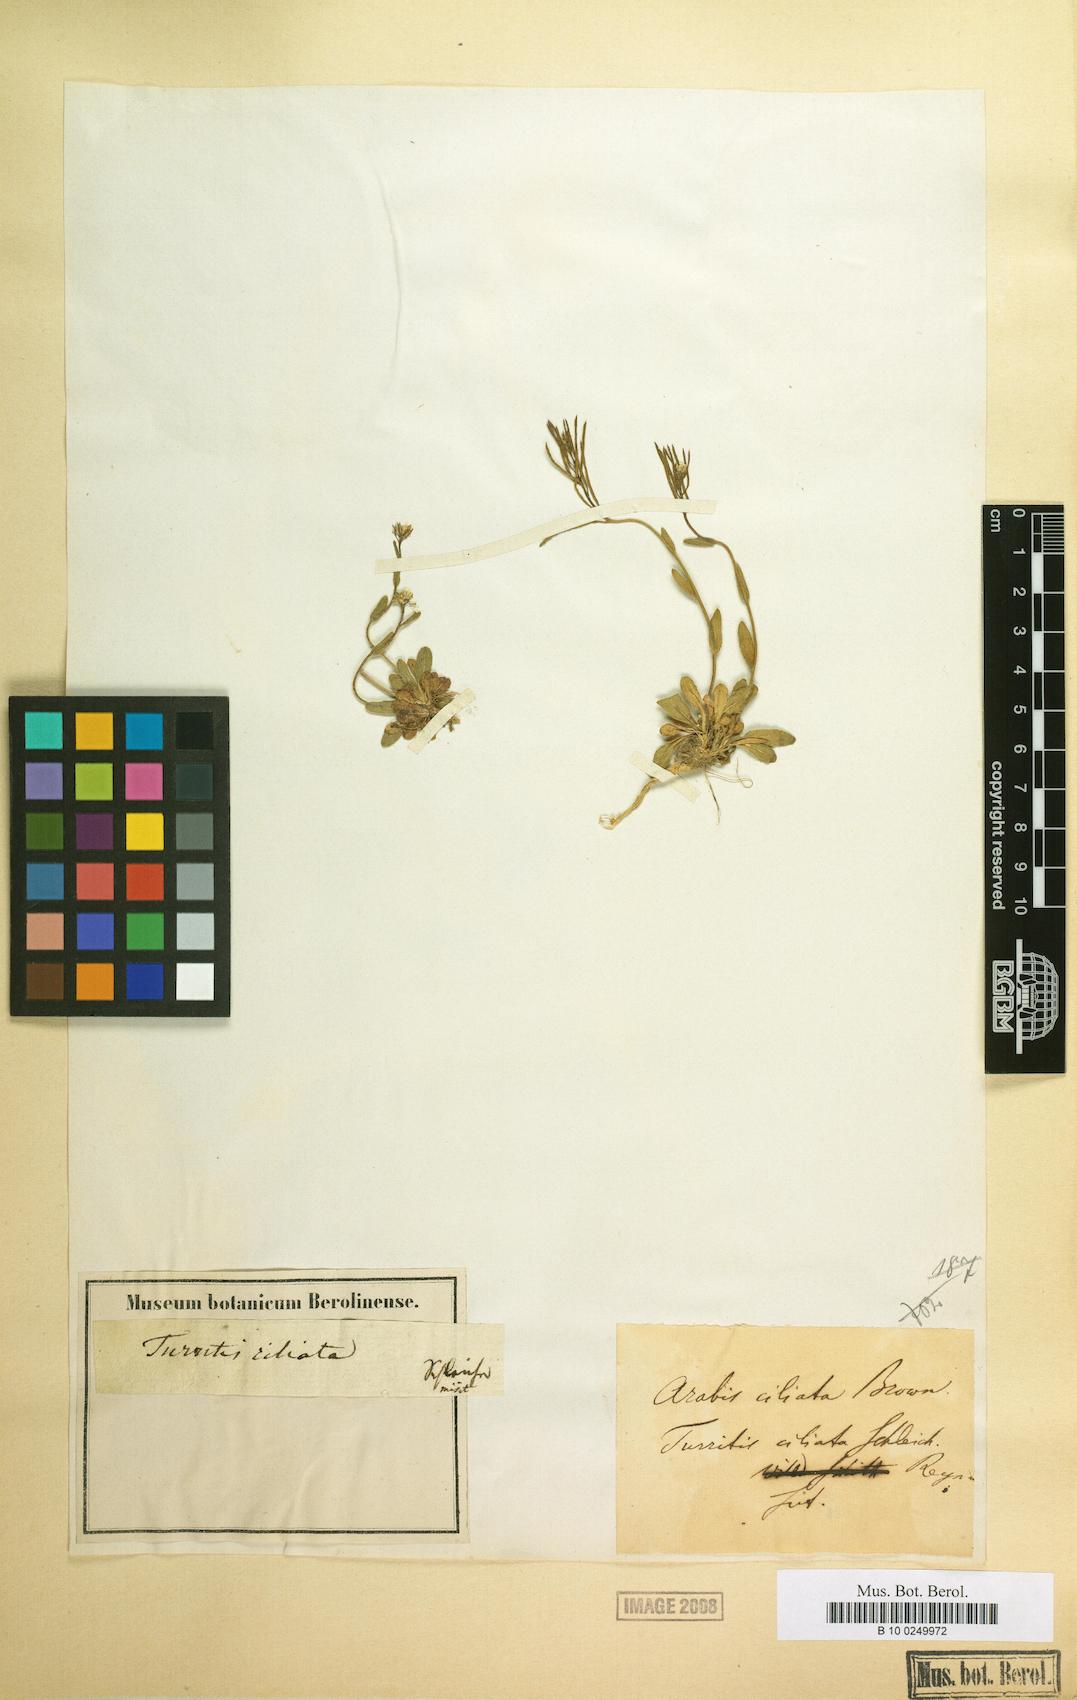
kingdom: Plantae
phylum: Tracheophyta
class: Magnoliopsida
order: Brassicales
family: Brassicaceae
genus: Turritis
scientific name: Turritis ciliata
